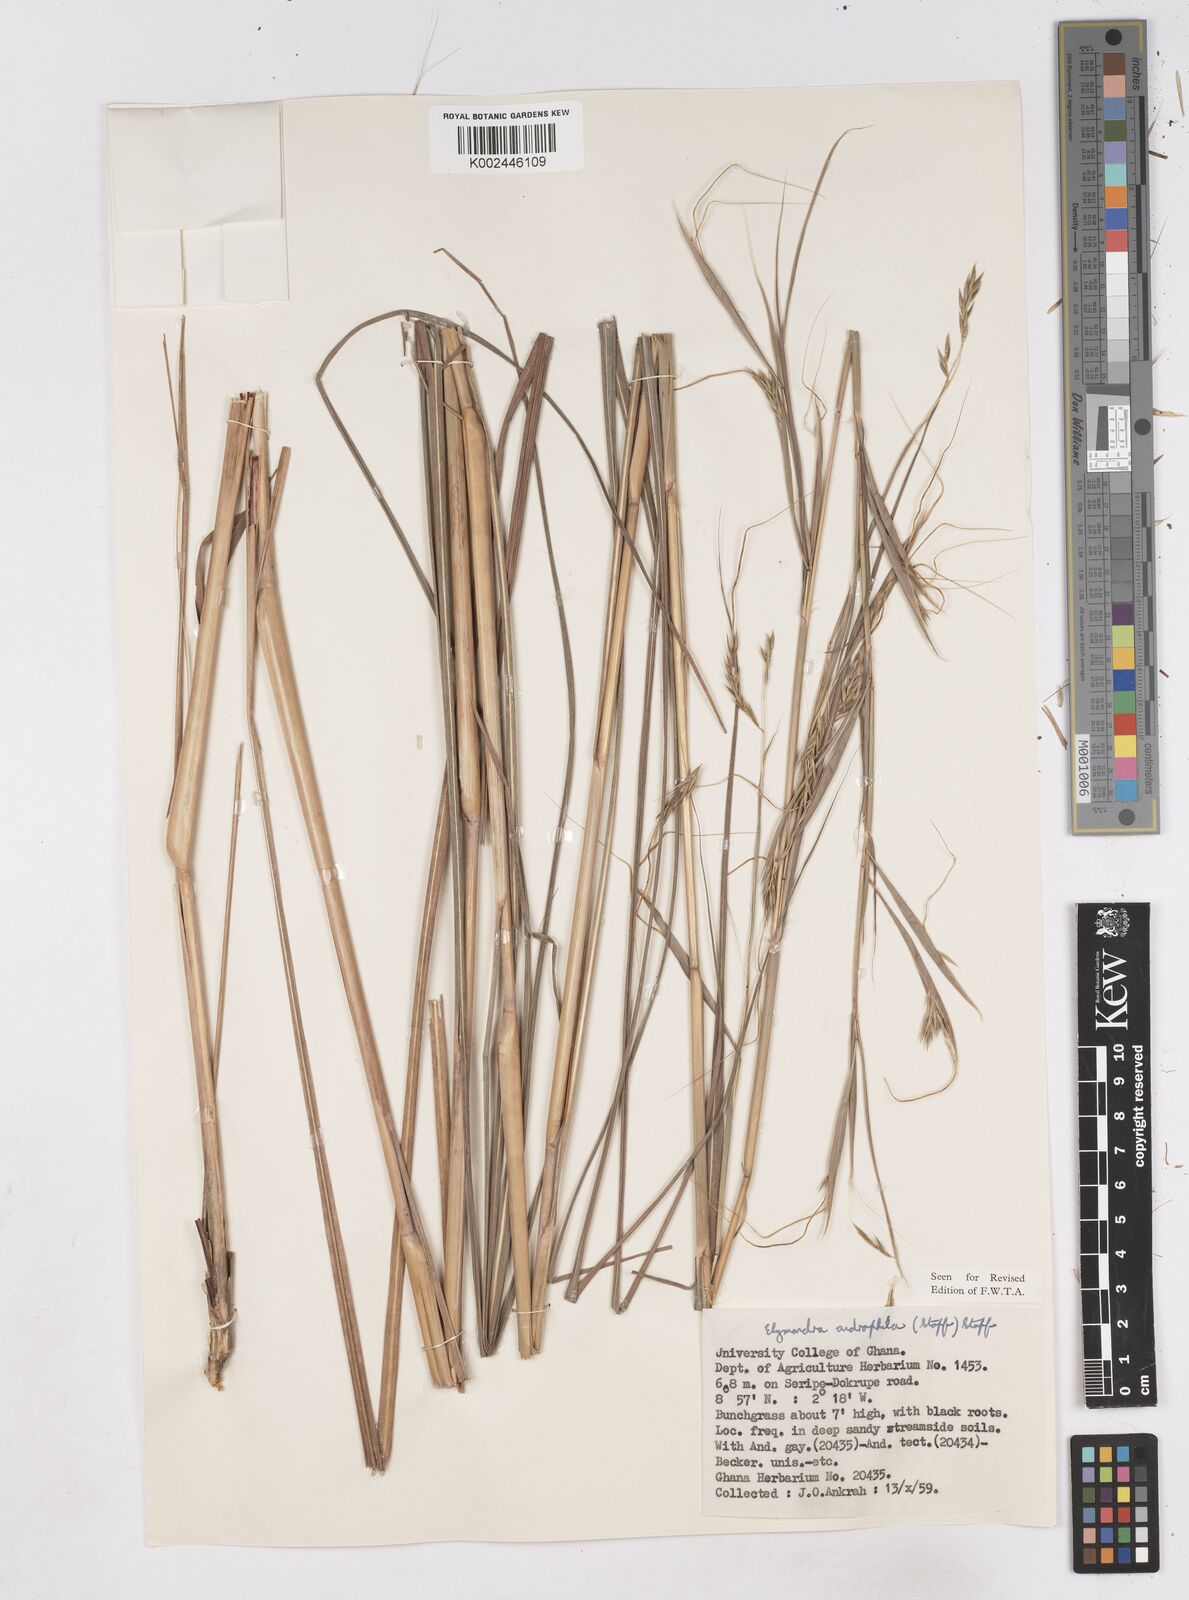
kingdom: Plantae
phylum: Tracheophyta
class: Liliopsida
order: Poales
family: Poaceae
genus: Elymandra
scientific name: Elymandra androphila
